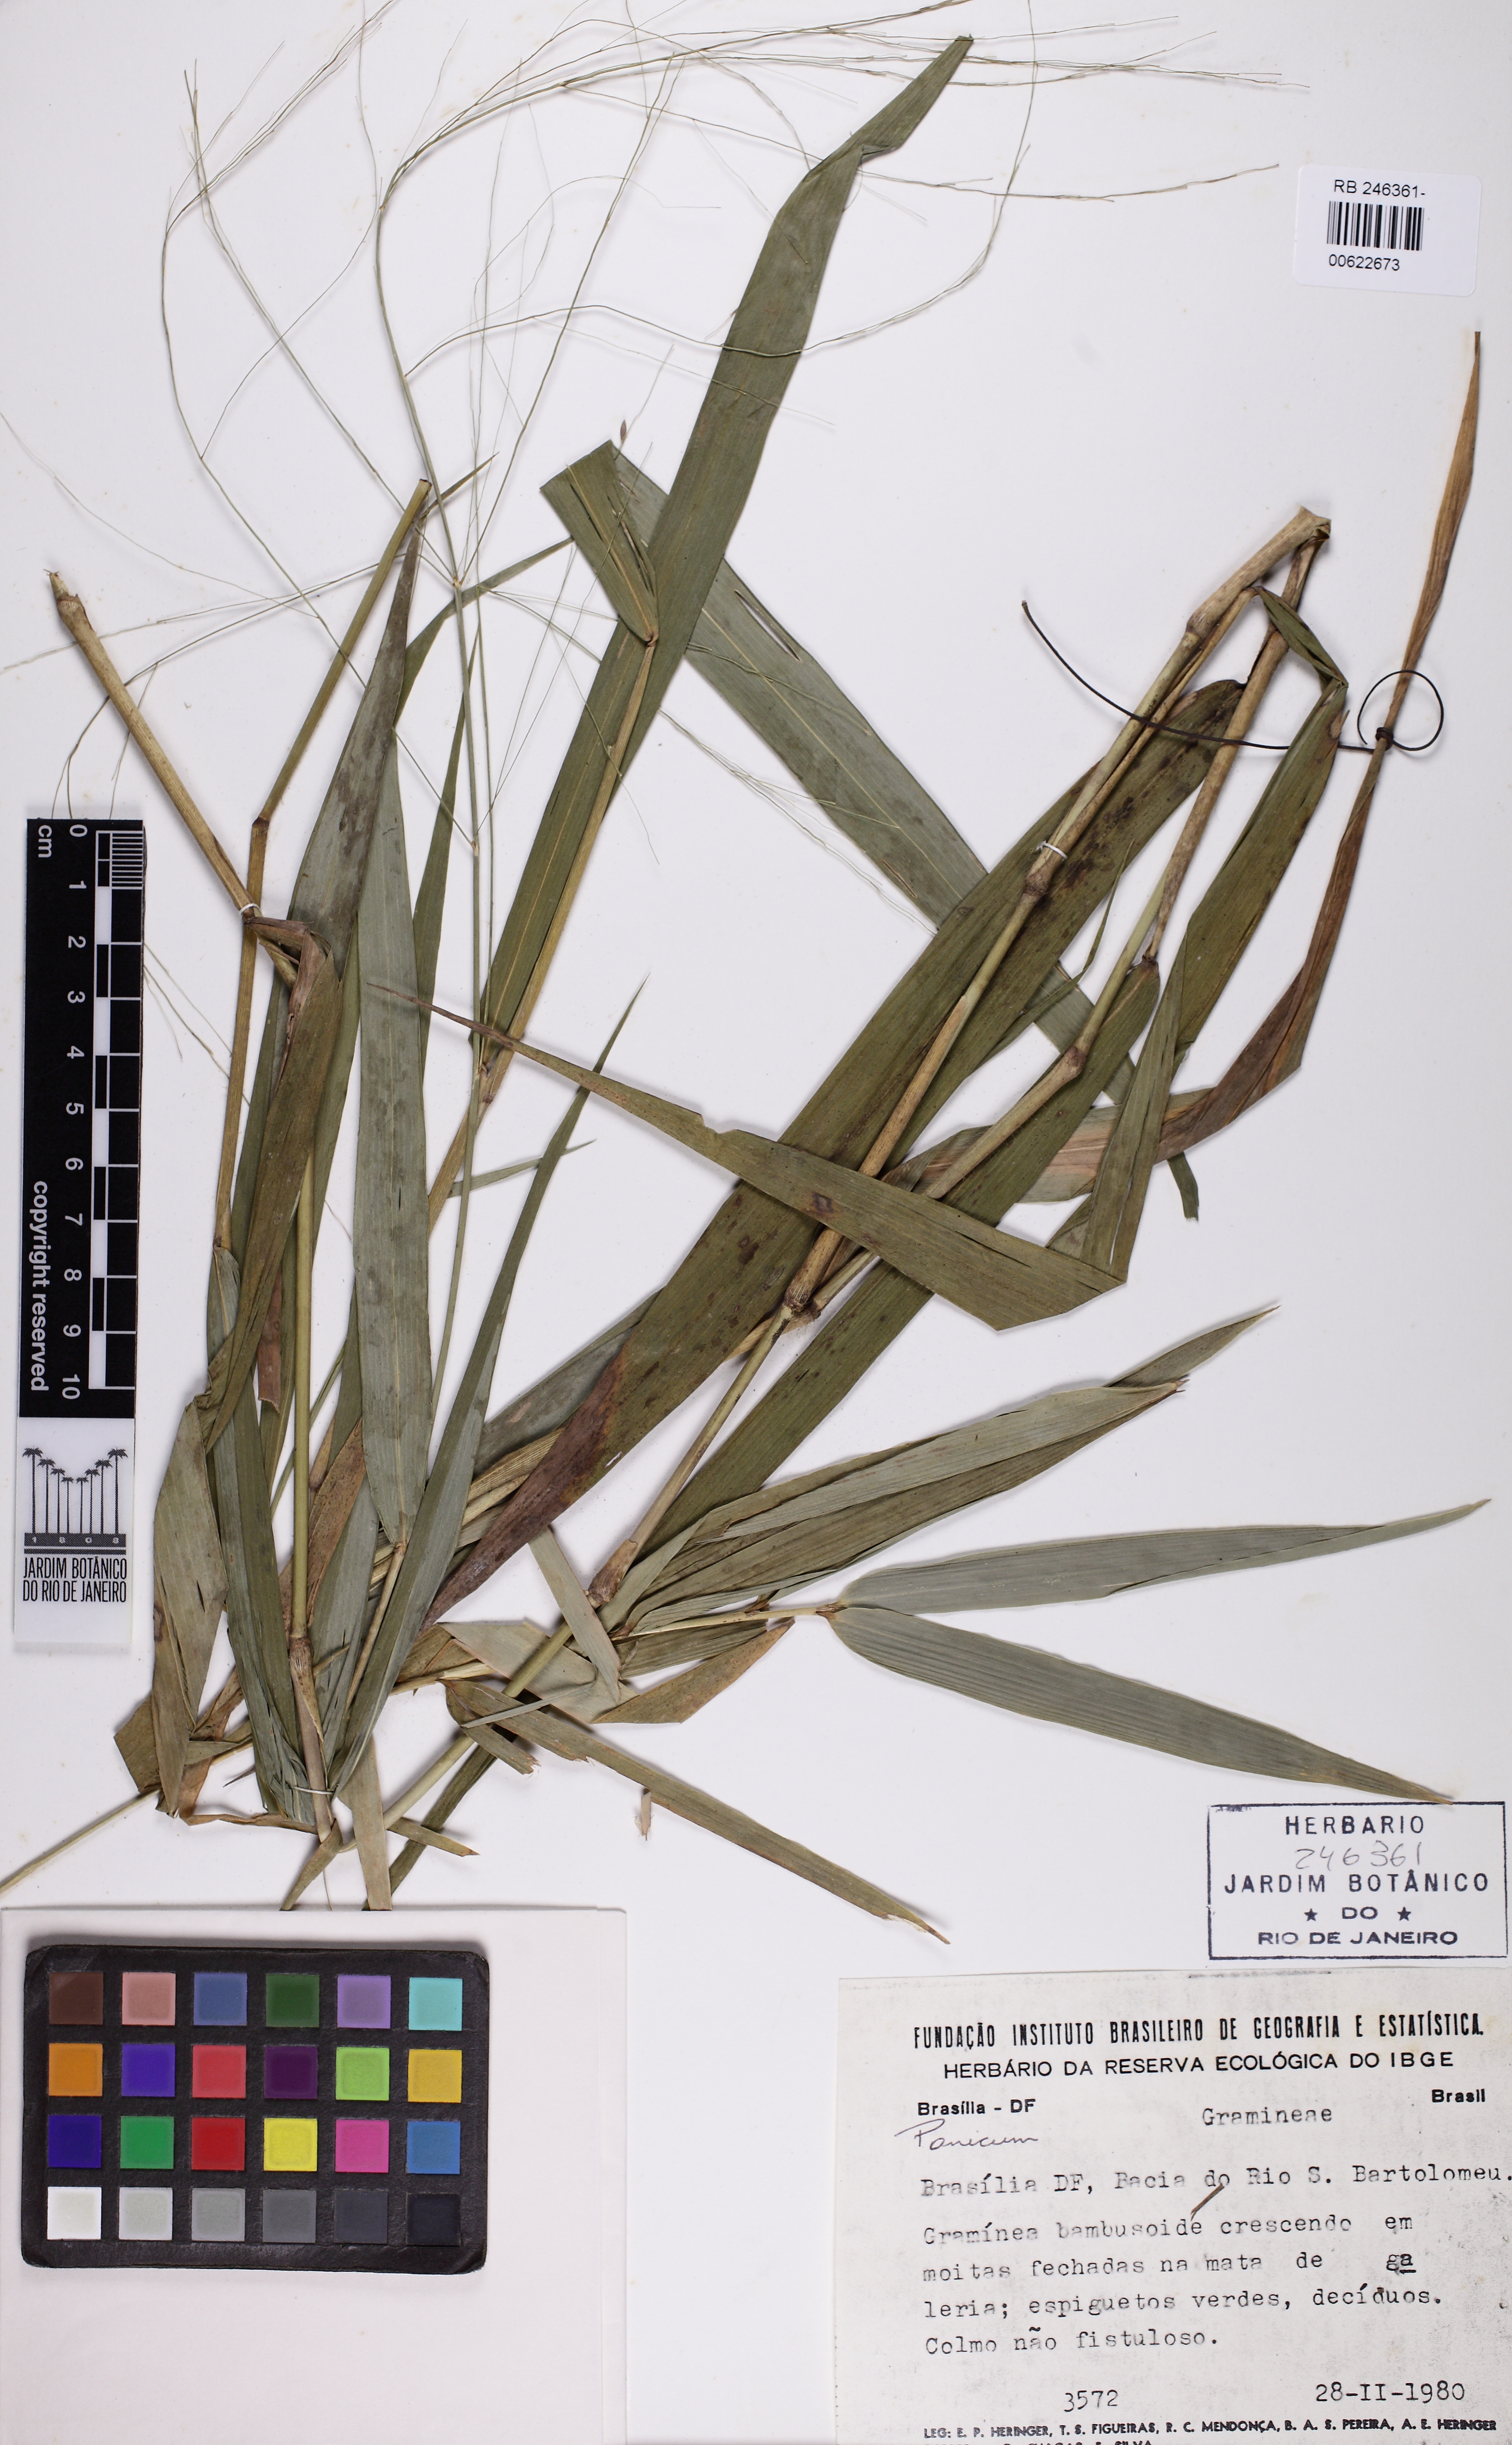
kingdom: Plantae
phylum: Tracheophyta
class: Liliopsida
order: Poales
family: Poaceae
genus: Parodiophyllochloa
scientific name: Parodiophyllochloa penicillata
